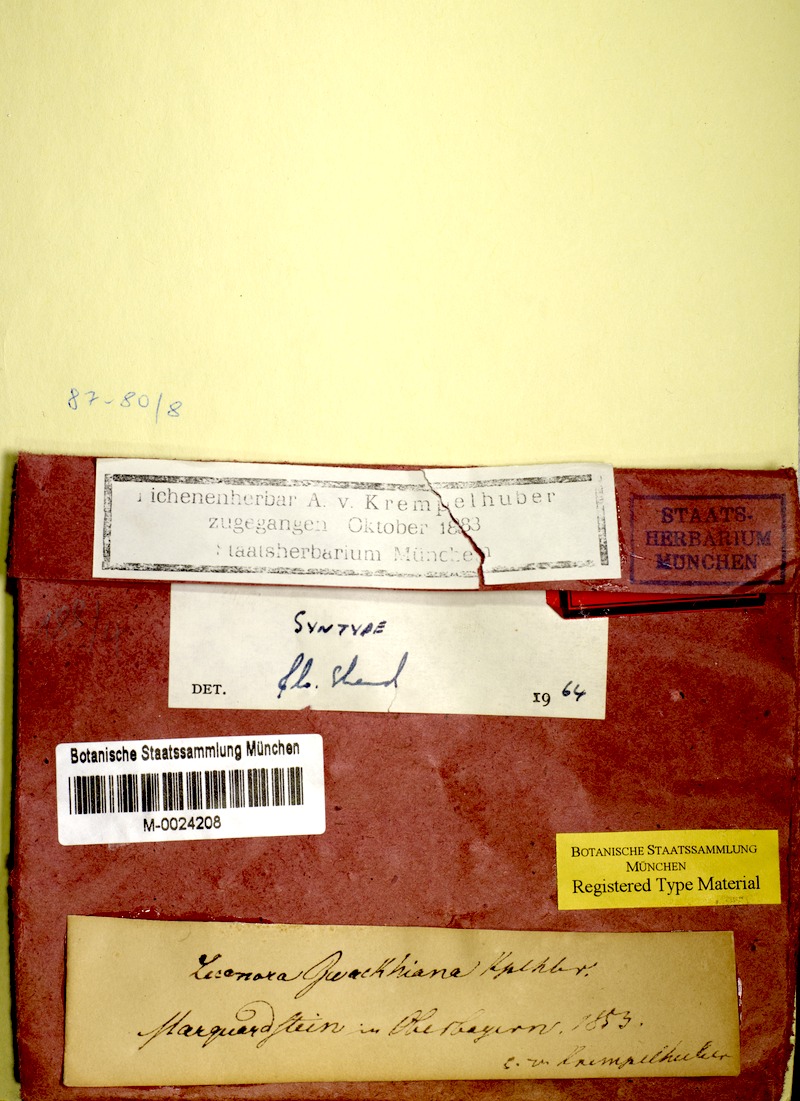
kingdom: Fungi
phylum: Ascomycota
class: Lecanoromycetes
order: Caliciales
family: Physciaceae
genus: Johnsheardia
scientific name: Johnsheardia zwackhiana
